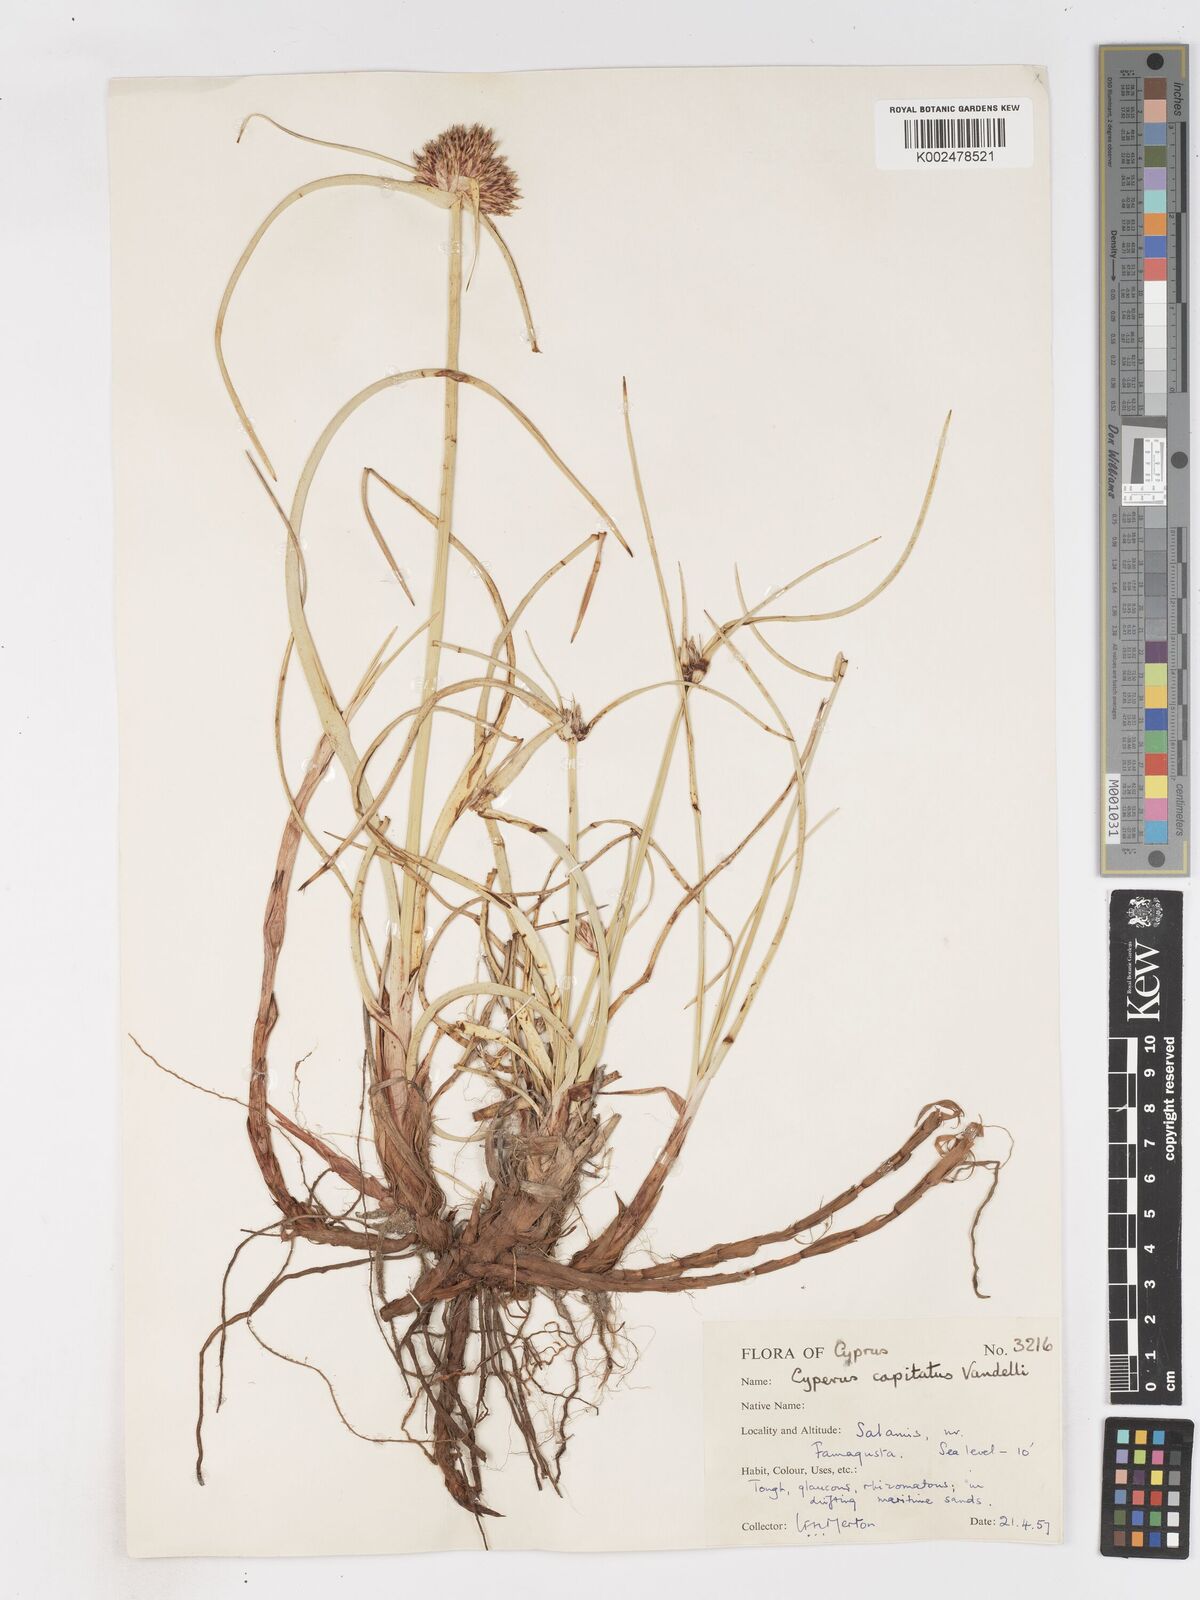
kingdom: Plantae
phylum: Tracheophyta
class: Liliopsida
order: Poales
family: Cyperaceae
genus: Cyperus
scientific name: Cyperus capitatus
